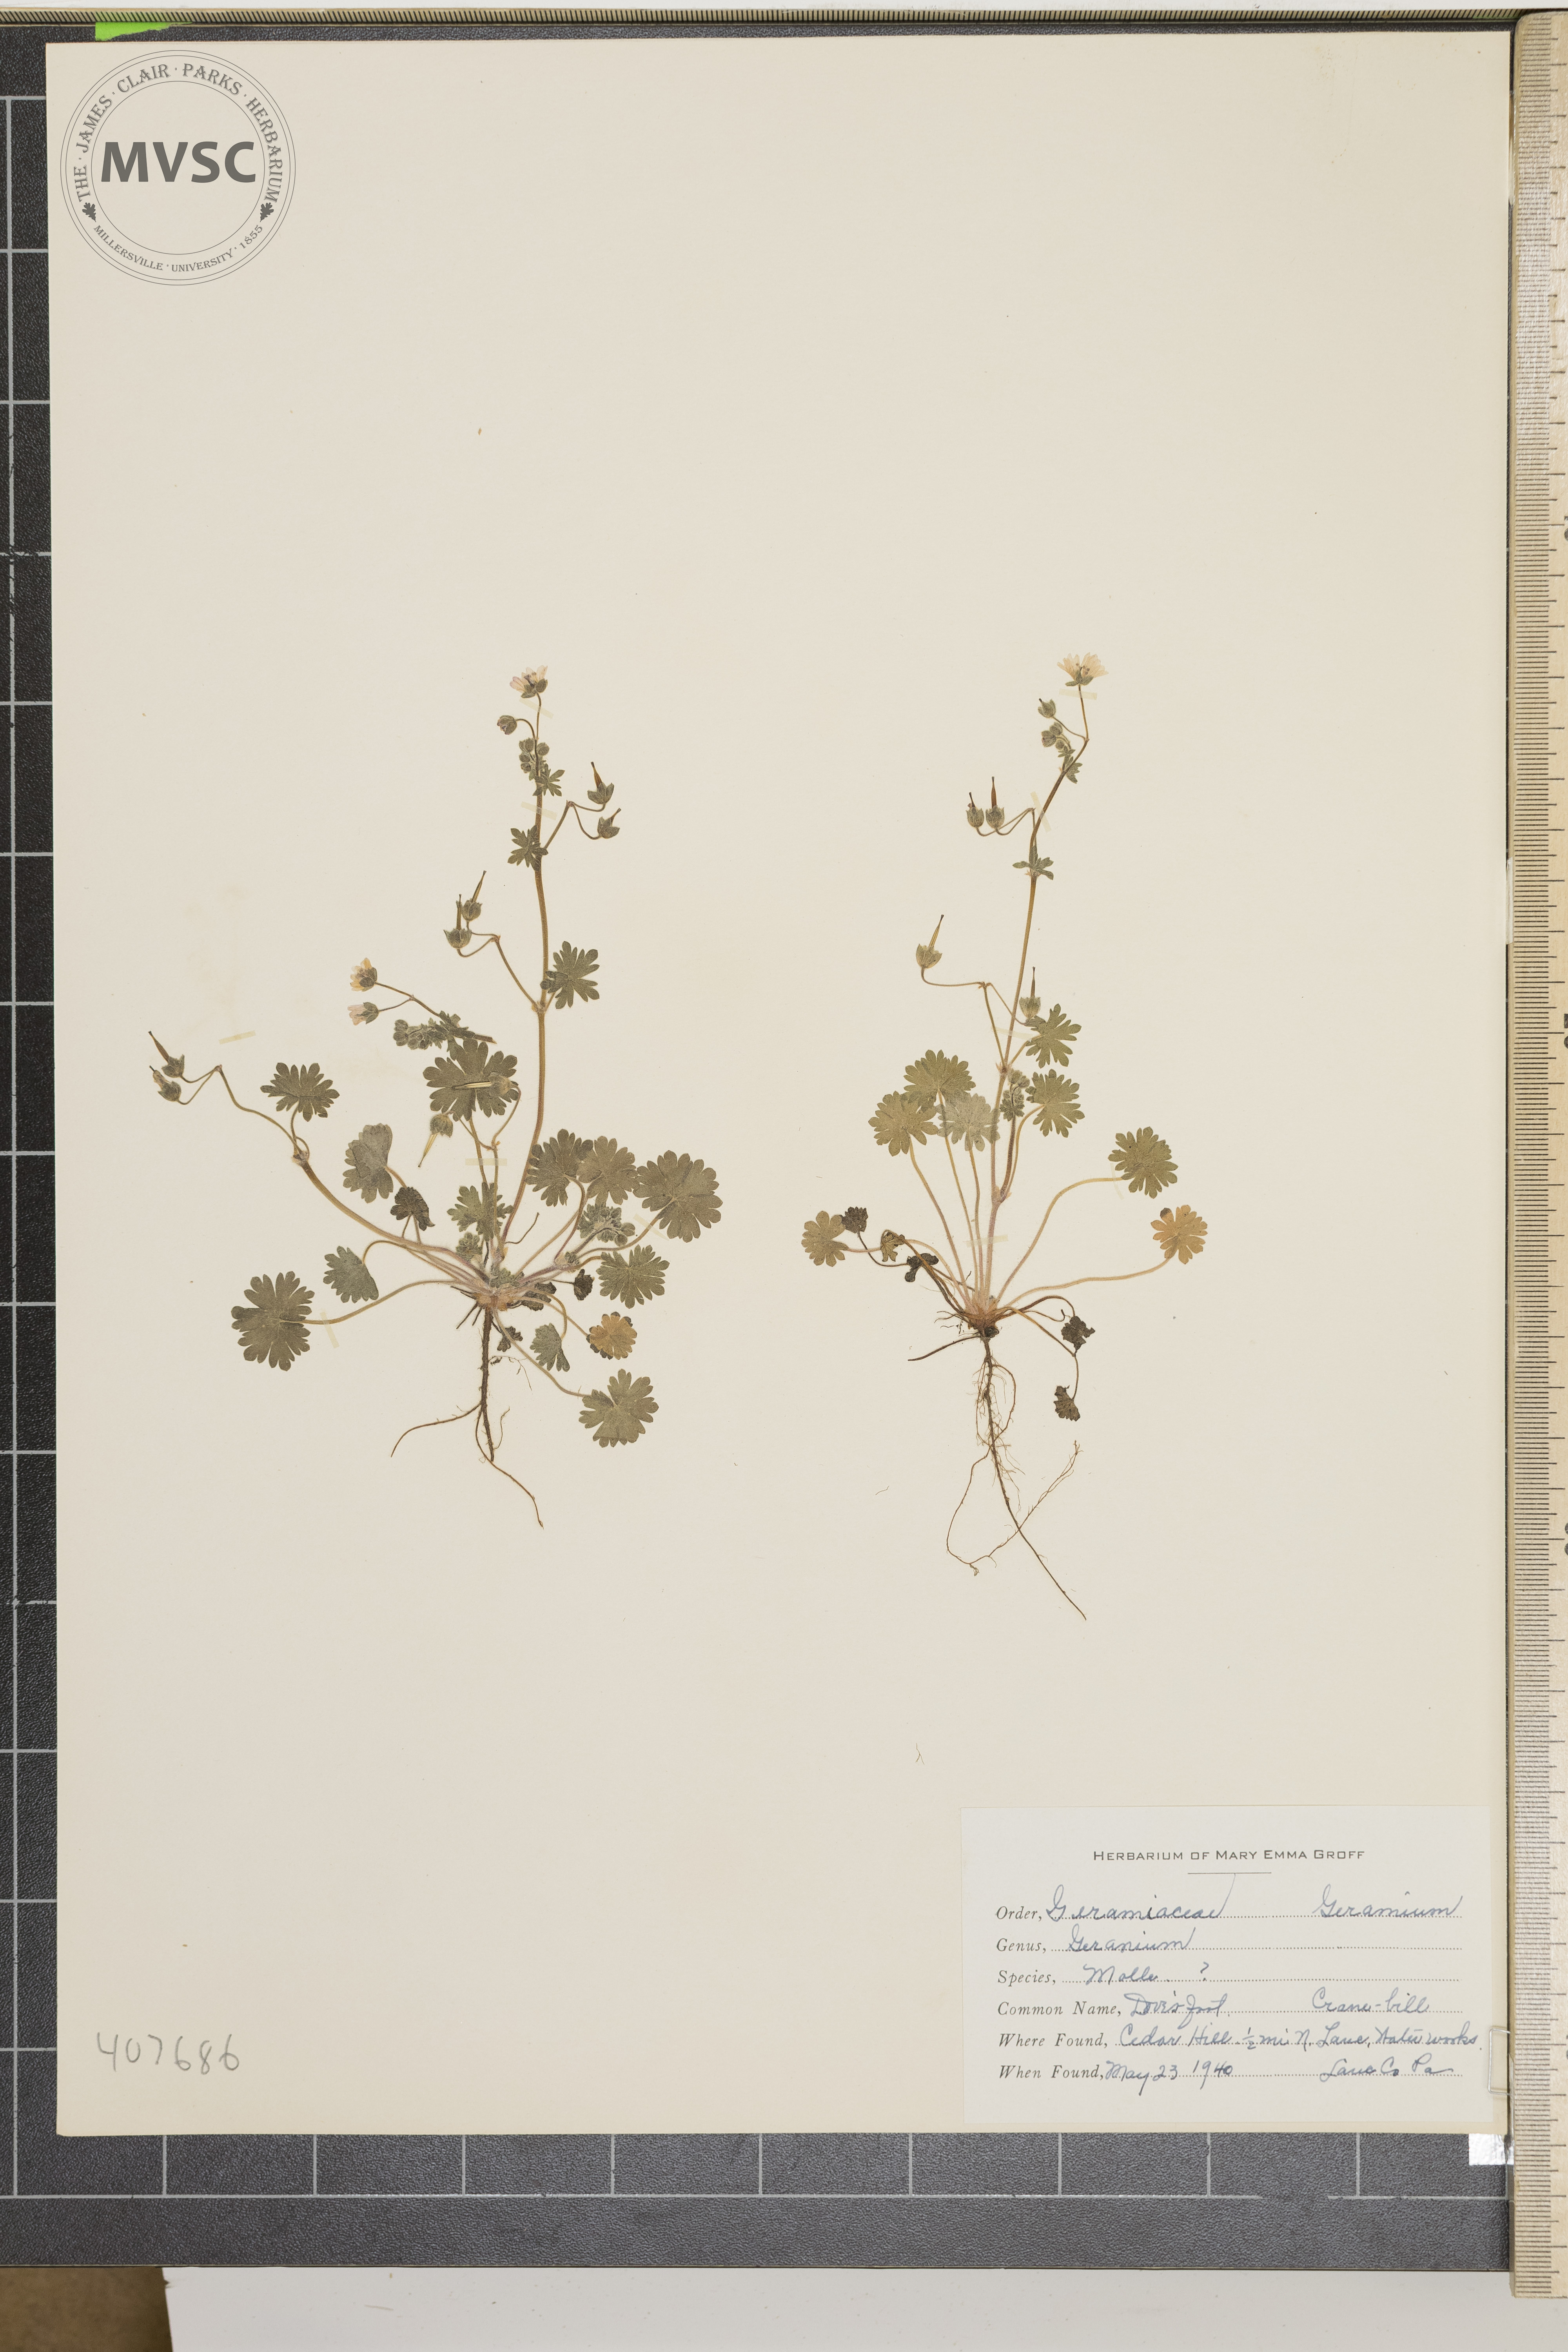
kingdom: Plantae
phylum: Tracheophyta
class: Magnoliopsida
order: Geraniales
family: Geraniaceae
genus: Geranium
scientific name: Geranium molle
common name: Dove's-foot crane's-bill
